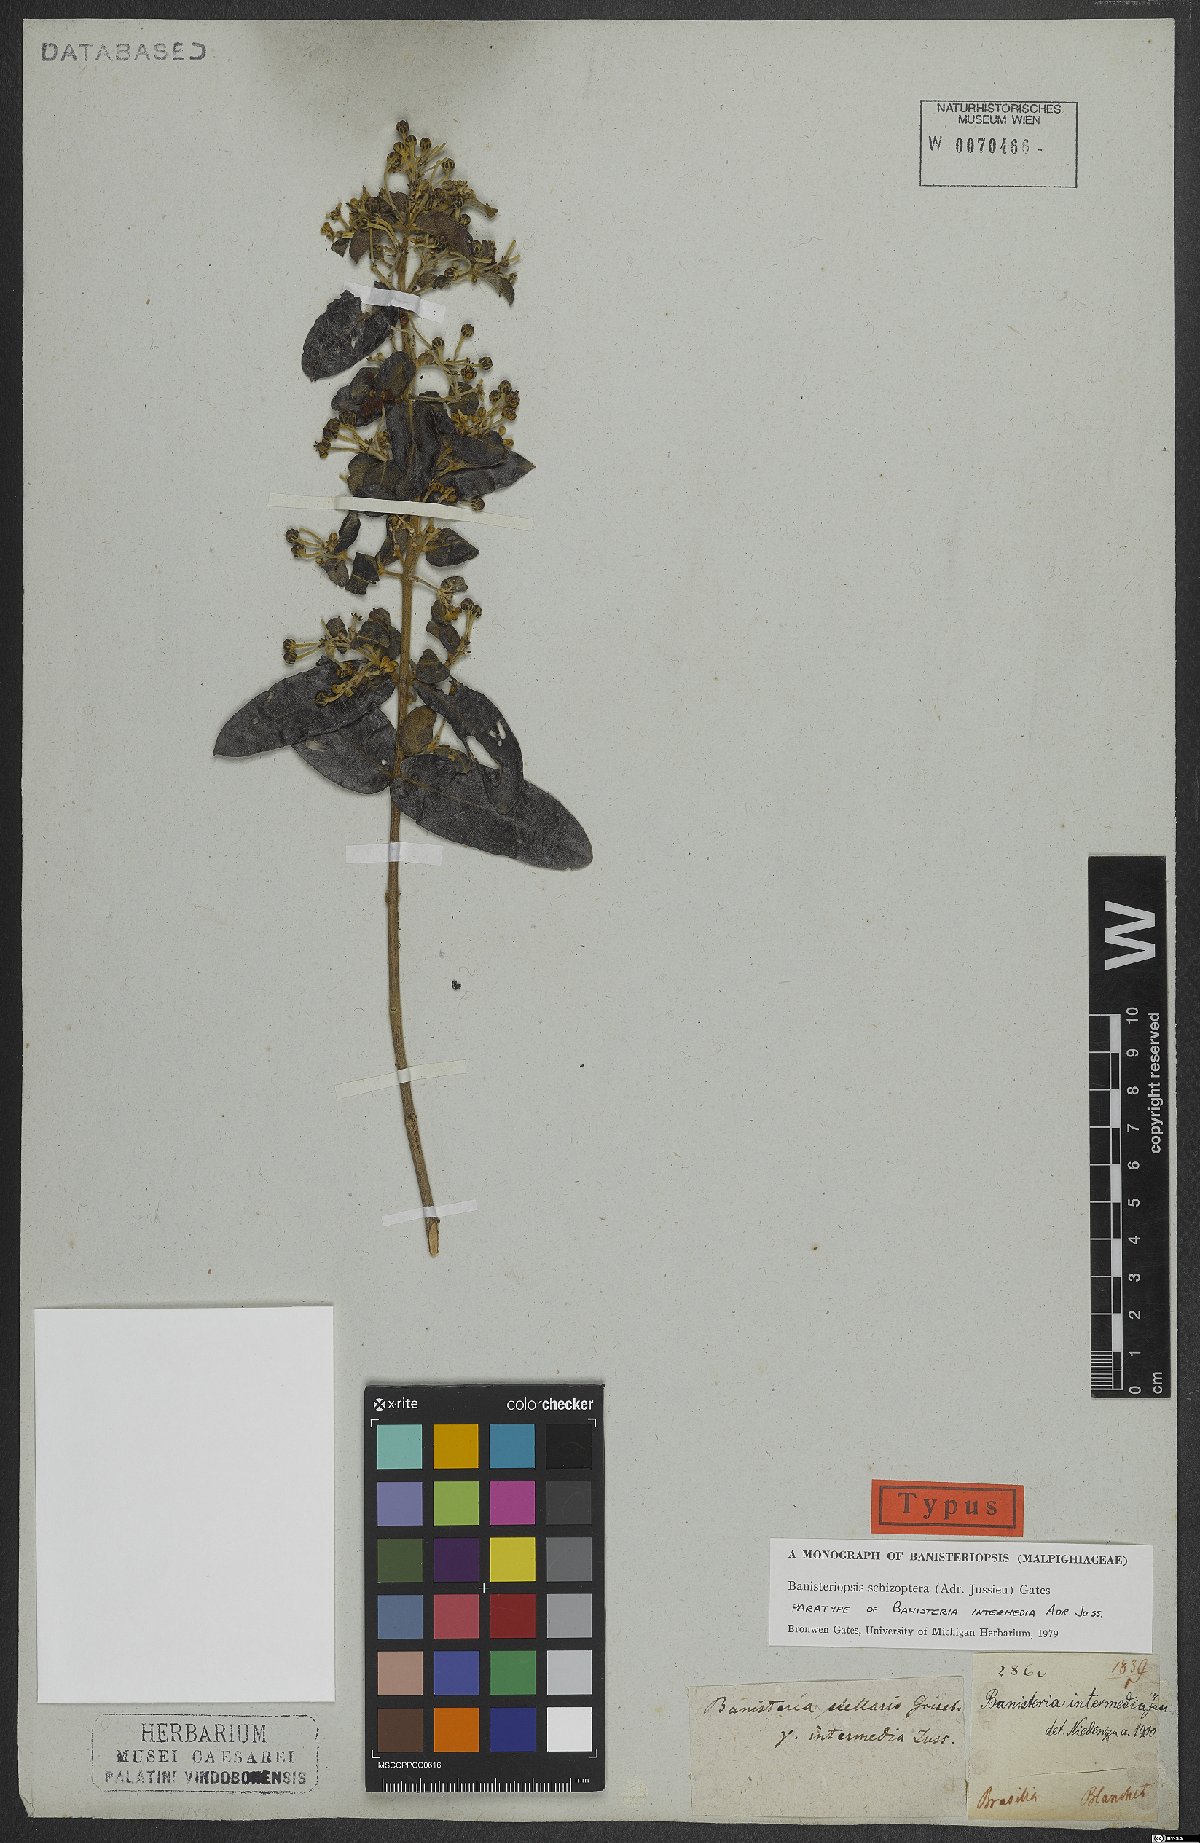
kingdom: Plantae
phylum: Tracheophyta
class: Magnoliopsida
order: Malpighiales
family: Malpighiaceae
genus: Banisteriopsis
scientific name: Banisteriopsis schizoptera
